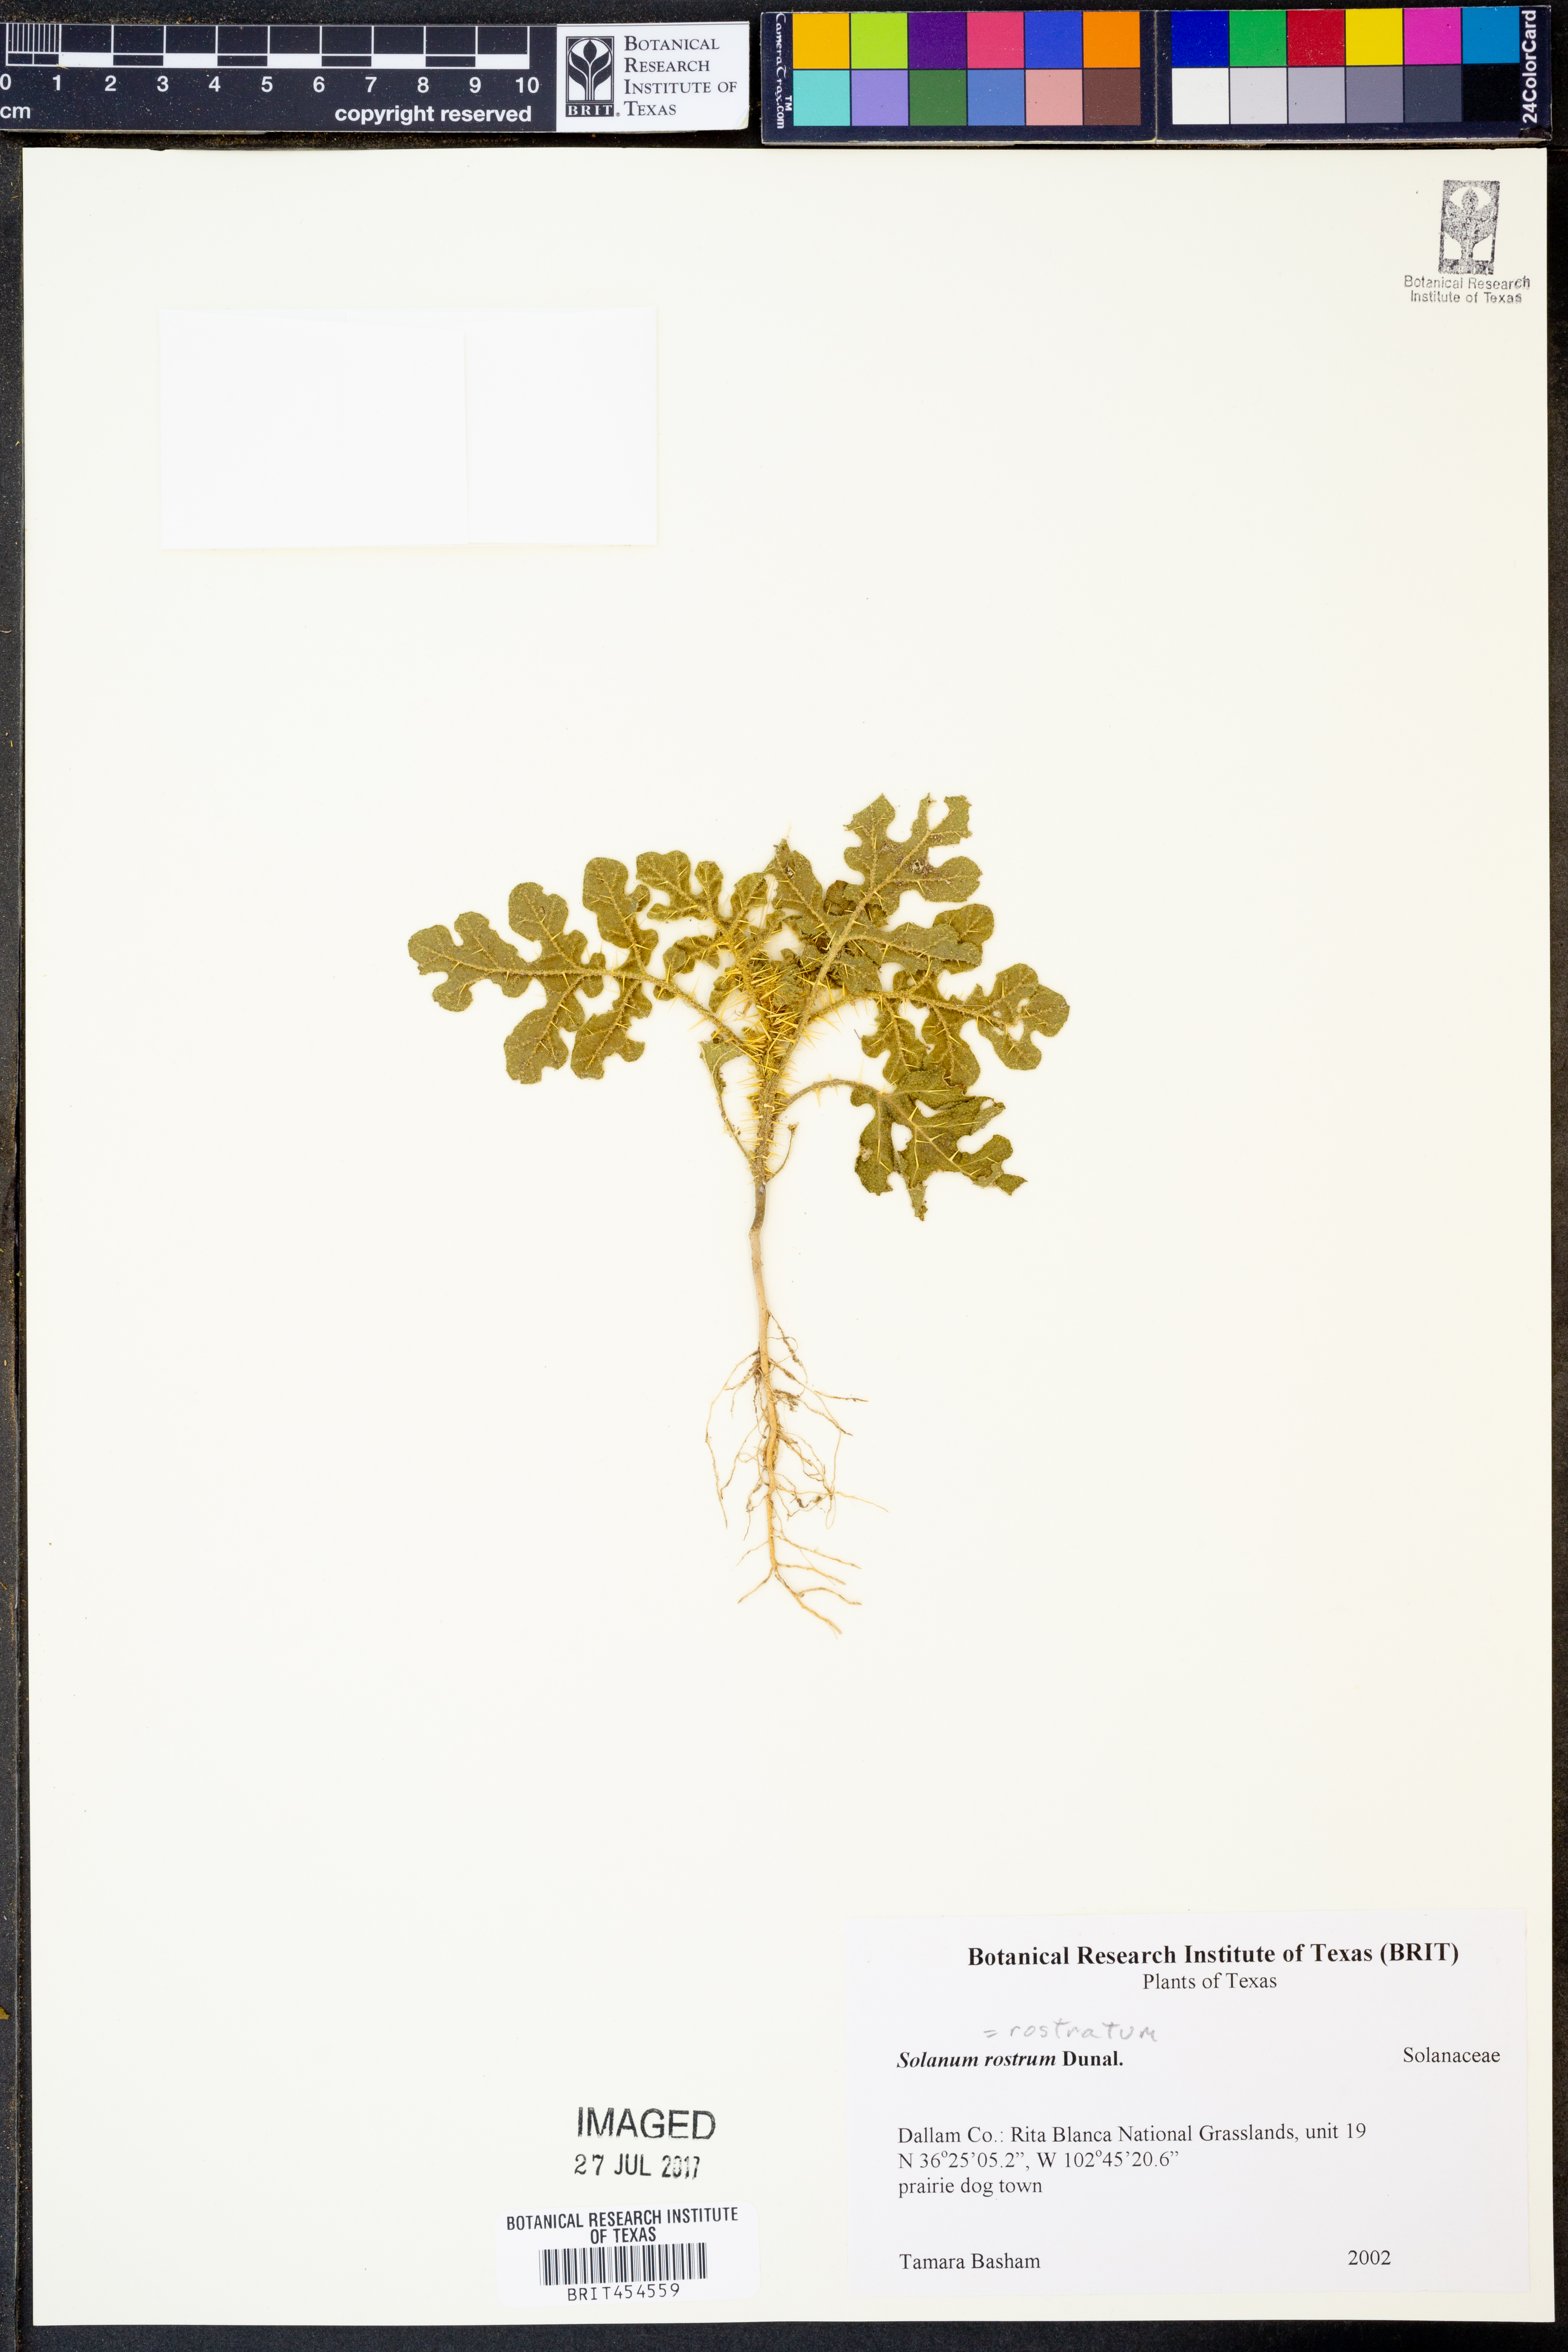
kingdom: Plantae
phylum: Tracheophyta
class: Magnoliopsida
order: Solanales
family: Solanaceae
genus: Solanum
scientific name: Solanum angustifolium
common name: Buffalobur nightshade
